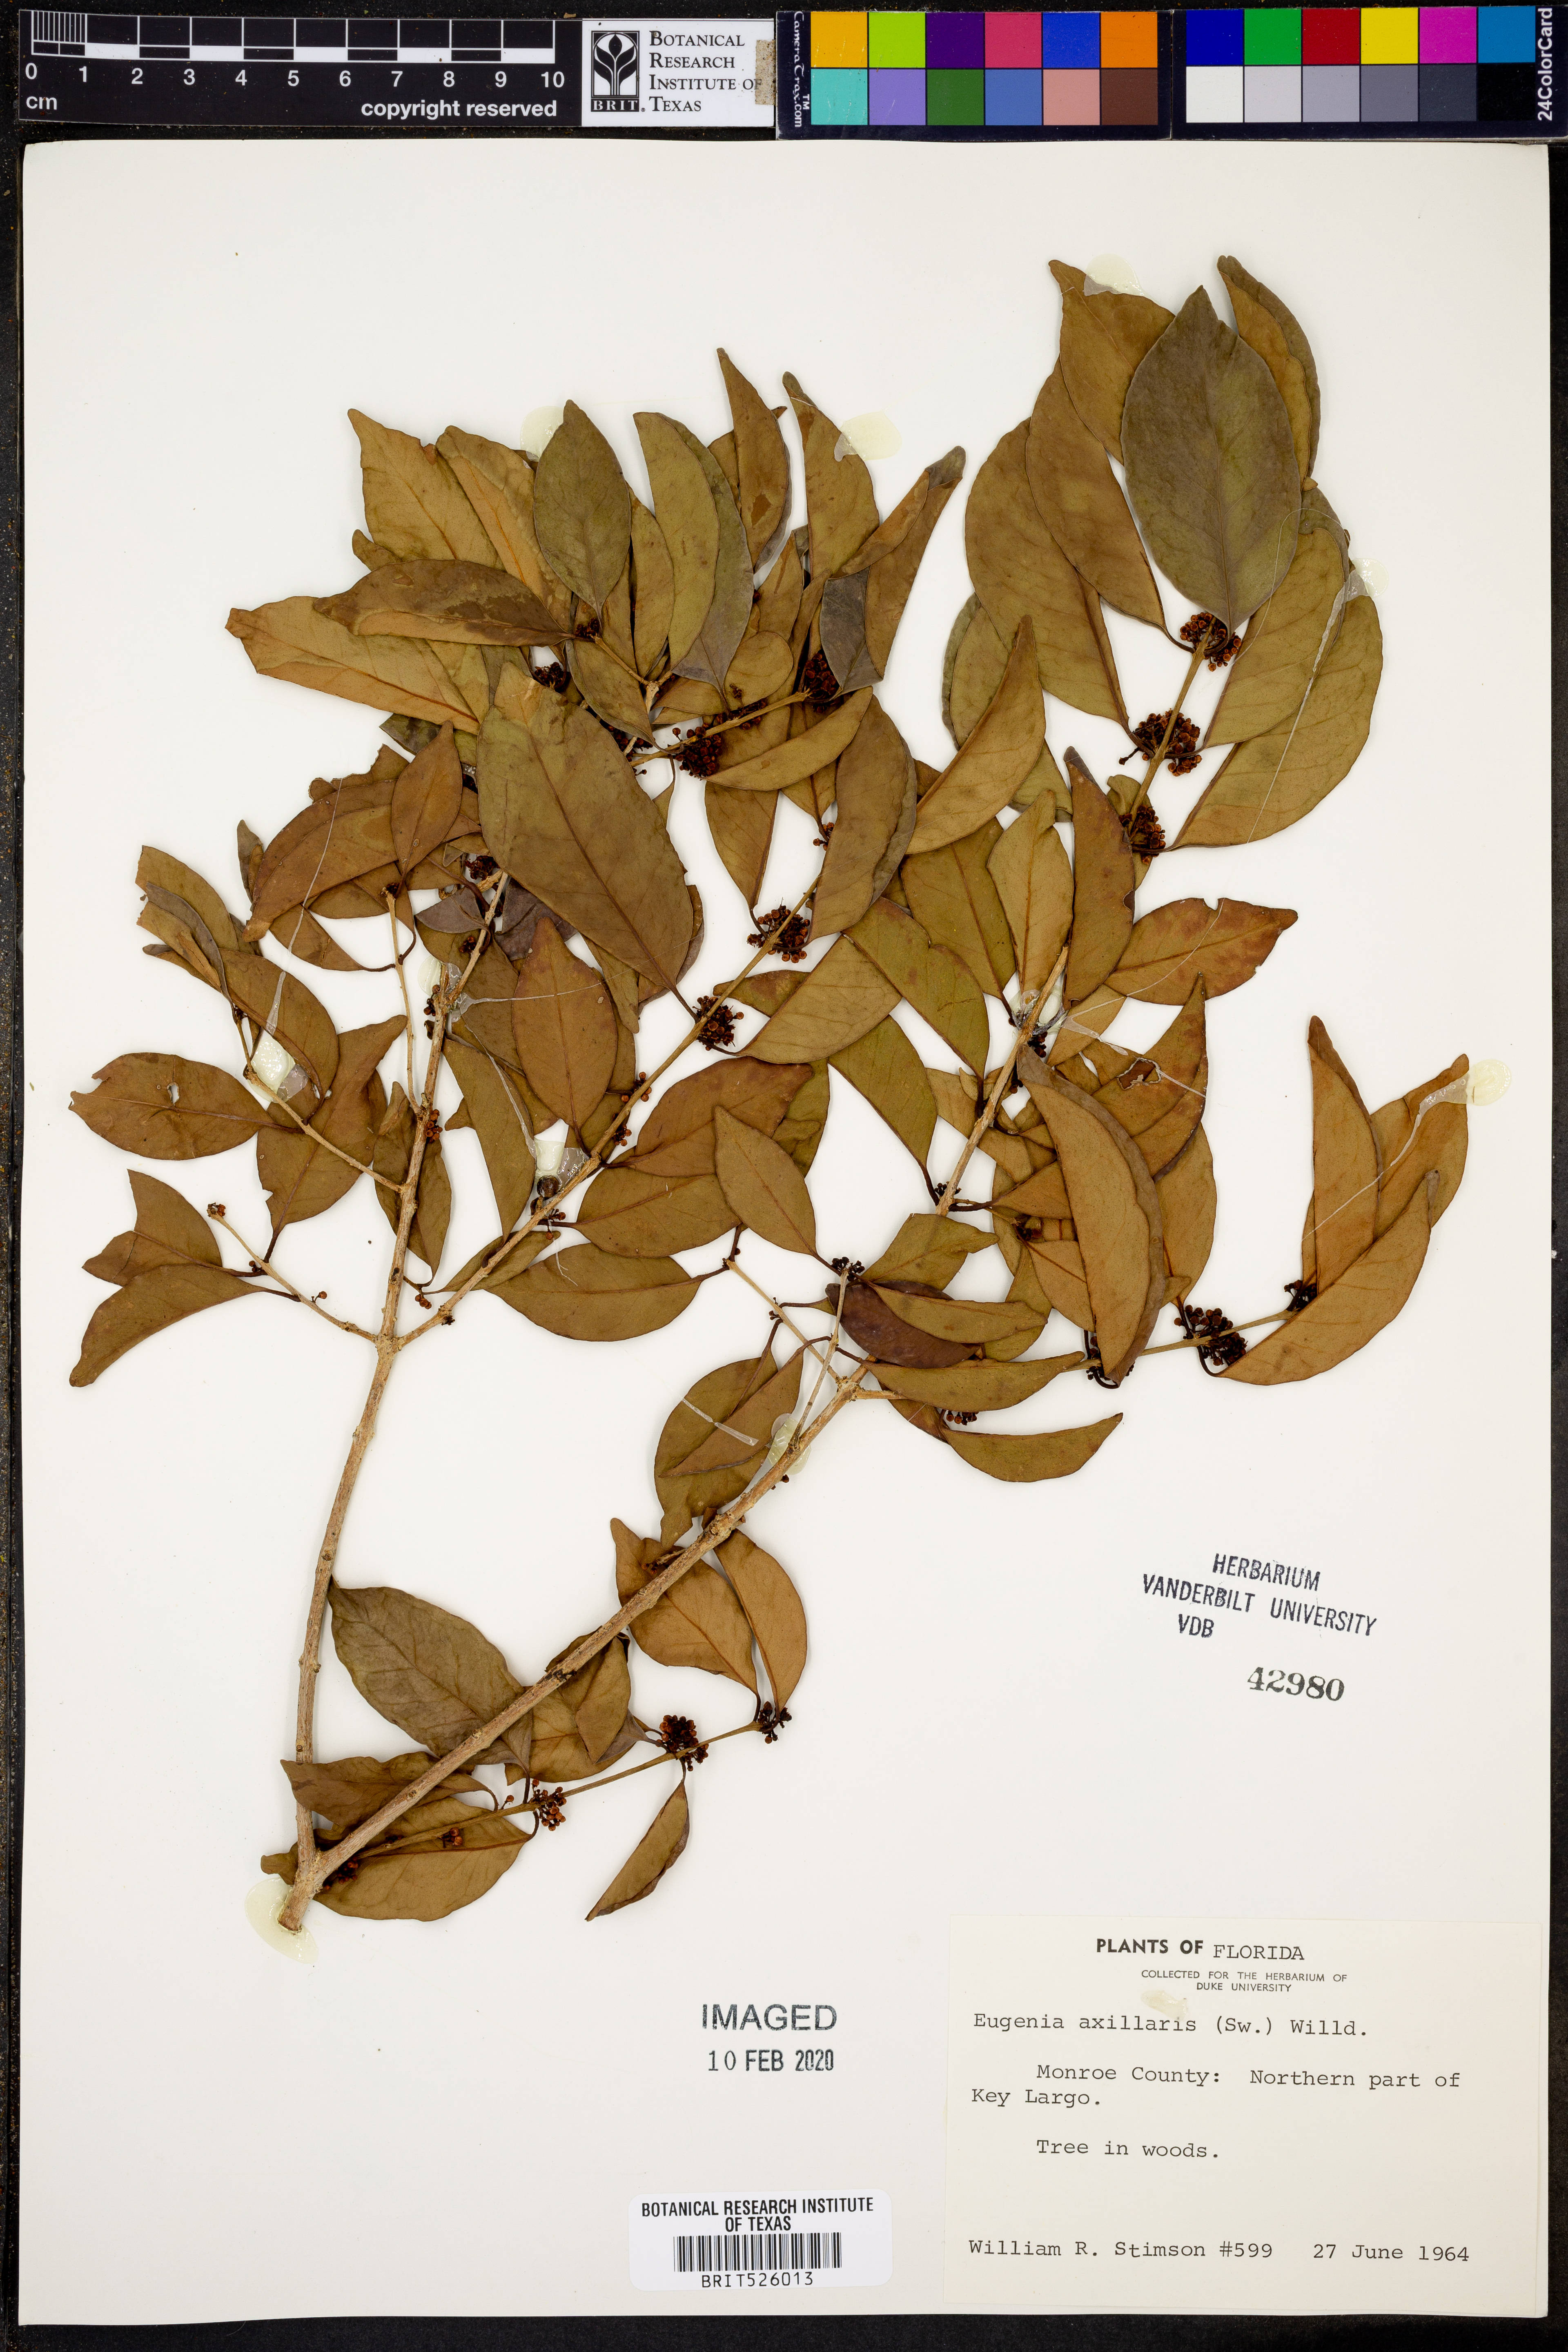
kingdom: Plantae
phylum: Tracheophyta
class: Magnoliopsida
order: Myrtales
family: Myrtaceae
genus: Eugenia
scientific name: Eugenia axillaris
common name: Choaky berry
